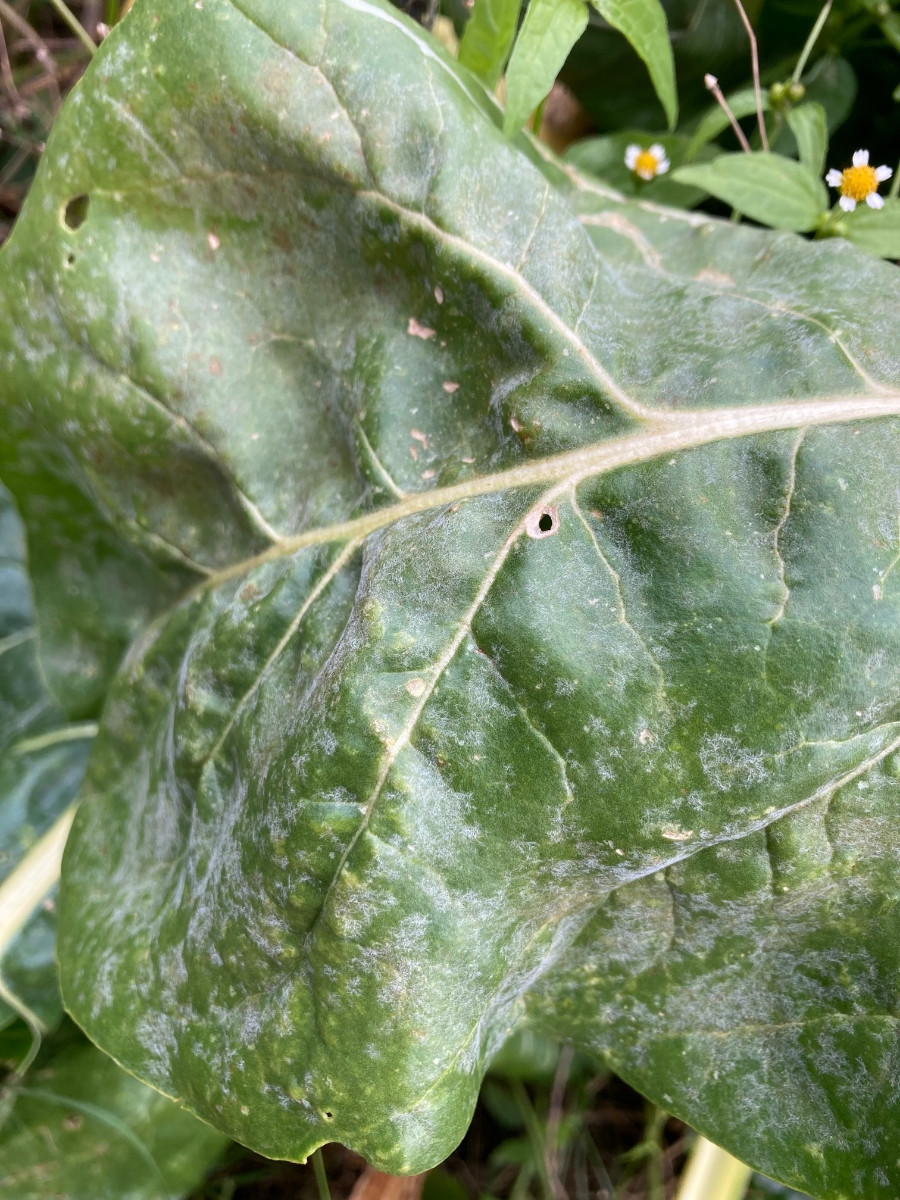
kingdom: Fungi
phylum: Ascomycota
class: Leotiomycetes
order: Helotiales
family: Erysiphaceae
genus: Erysiphe
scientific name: Erysiphe betae
